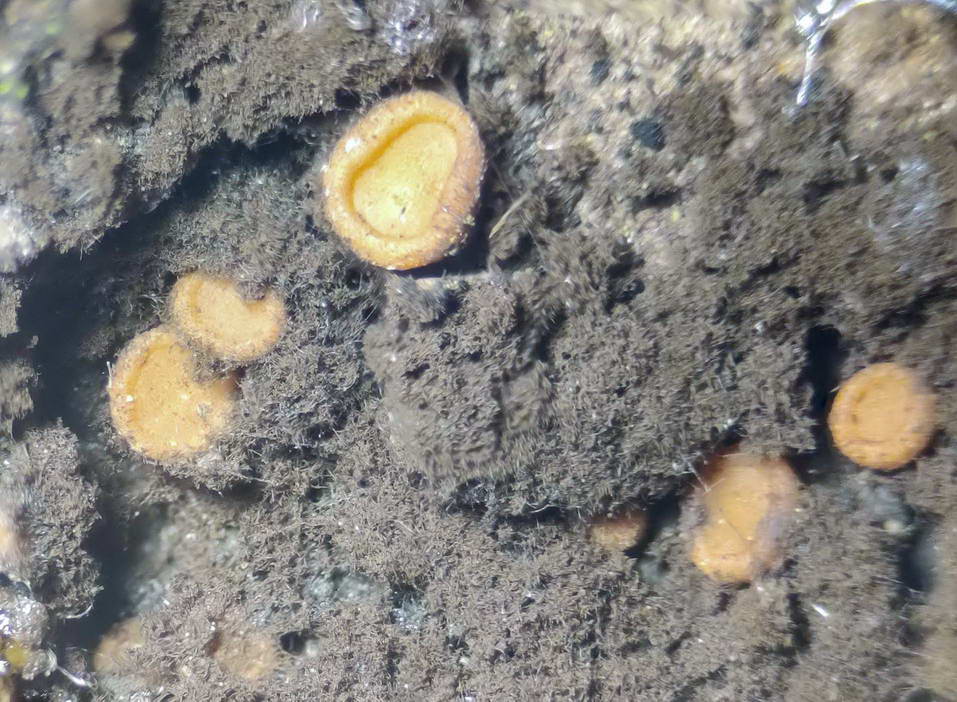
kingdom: Fungi
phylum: Ascomycota
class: Sareomycetes
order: Sareales
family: Sareaceae
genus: Sarea
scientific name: Sarea resinae
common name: orangegul harpiksskive
